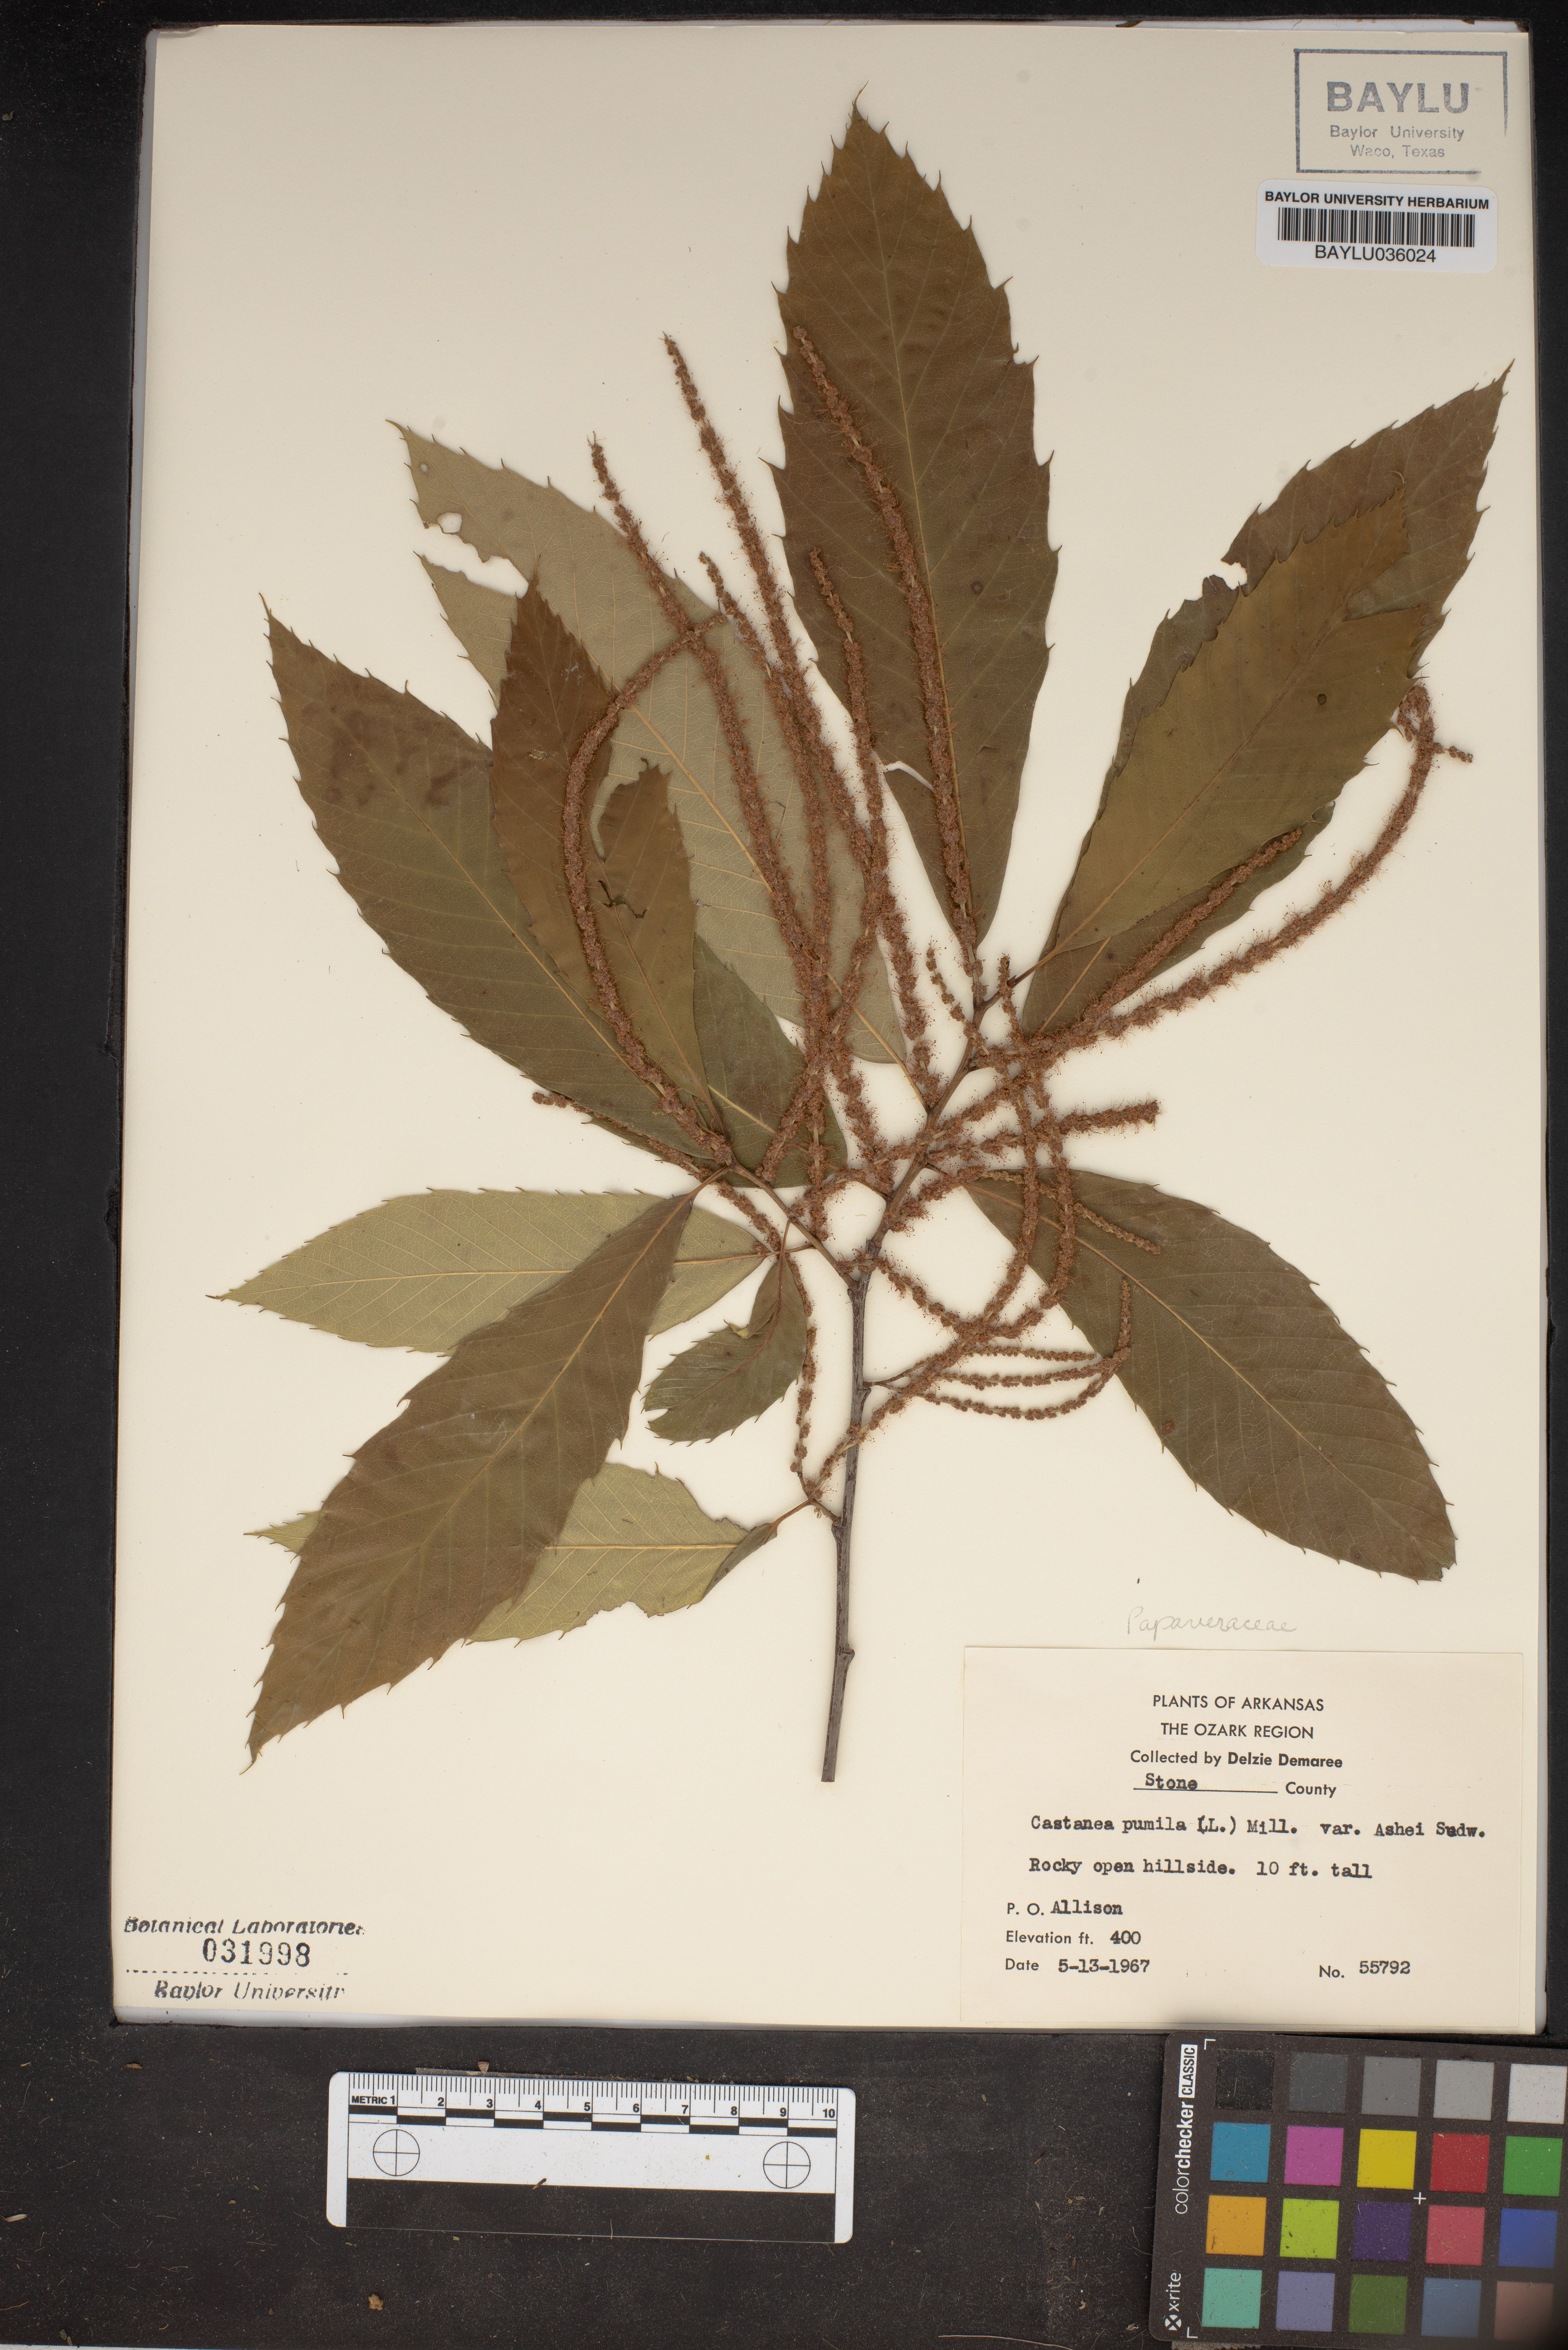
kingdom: Plantae
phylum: Tracheophyta
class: Magnoliopsida
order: Fagales
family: Fagaceae
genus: Castanea
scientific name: Castanea pumila
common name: Chinkapin
